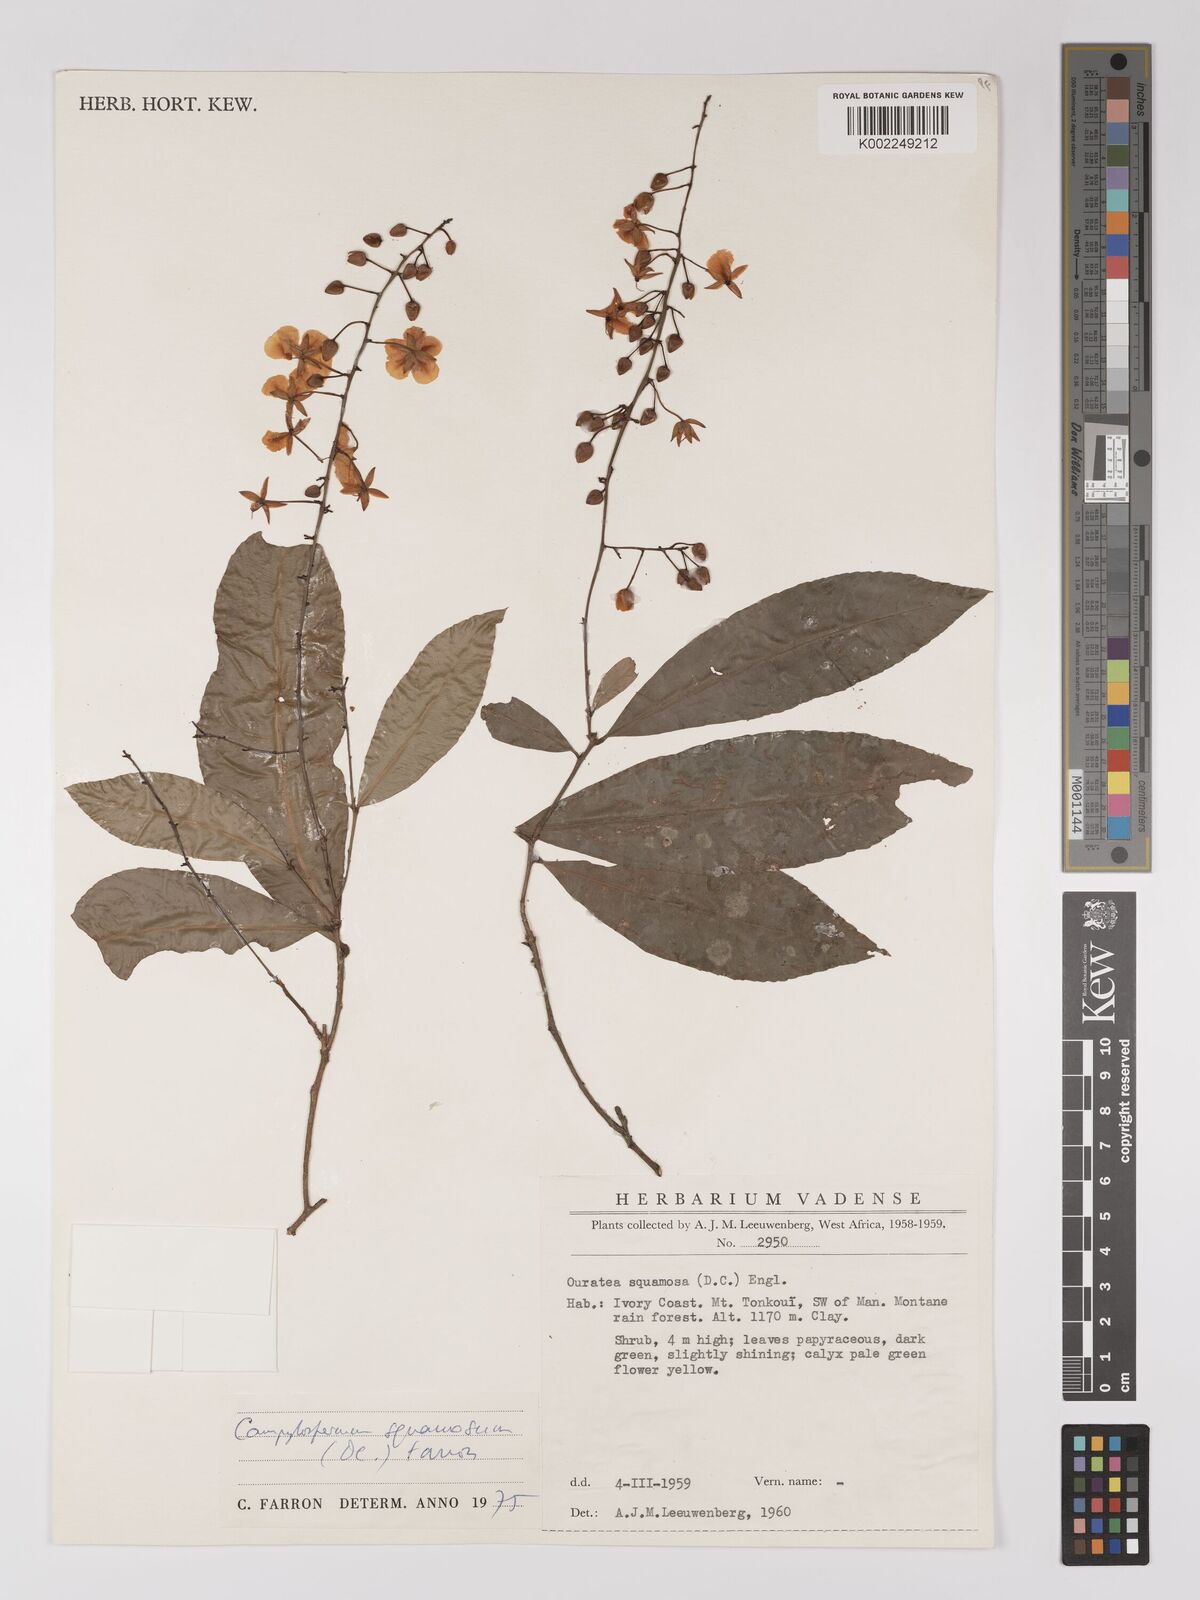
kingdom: Plantae
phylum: Tracheophyta
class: Magnoliopsida
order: Malpighiales
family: Ochnaceae
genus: Campylospermum
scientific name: Campylospermum squamosum
